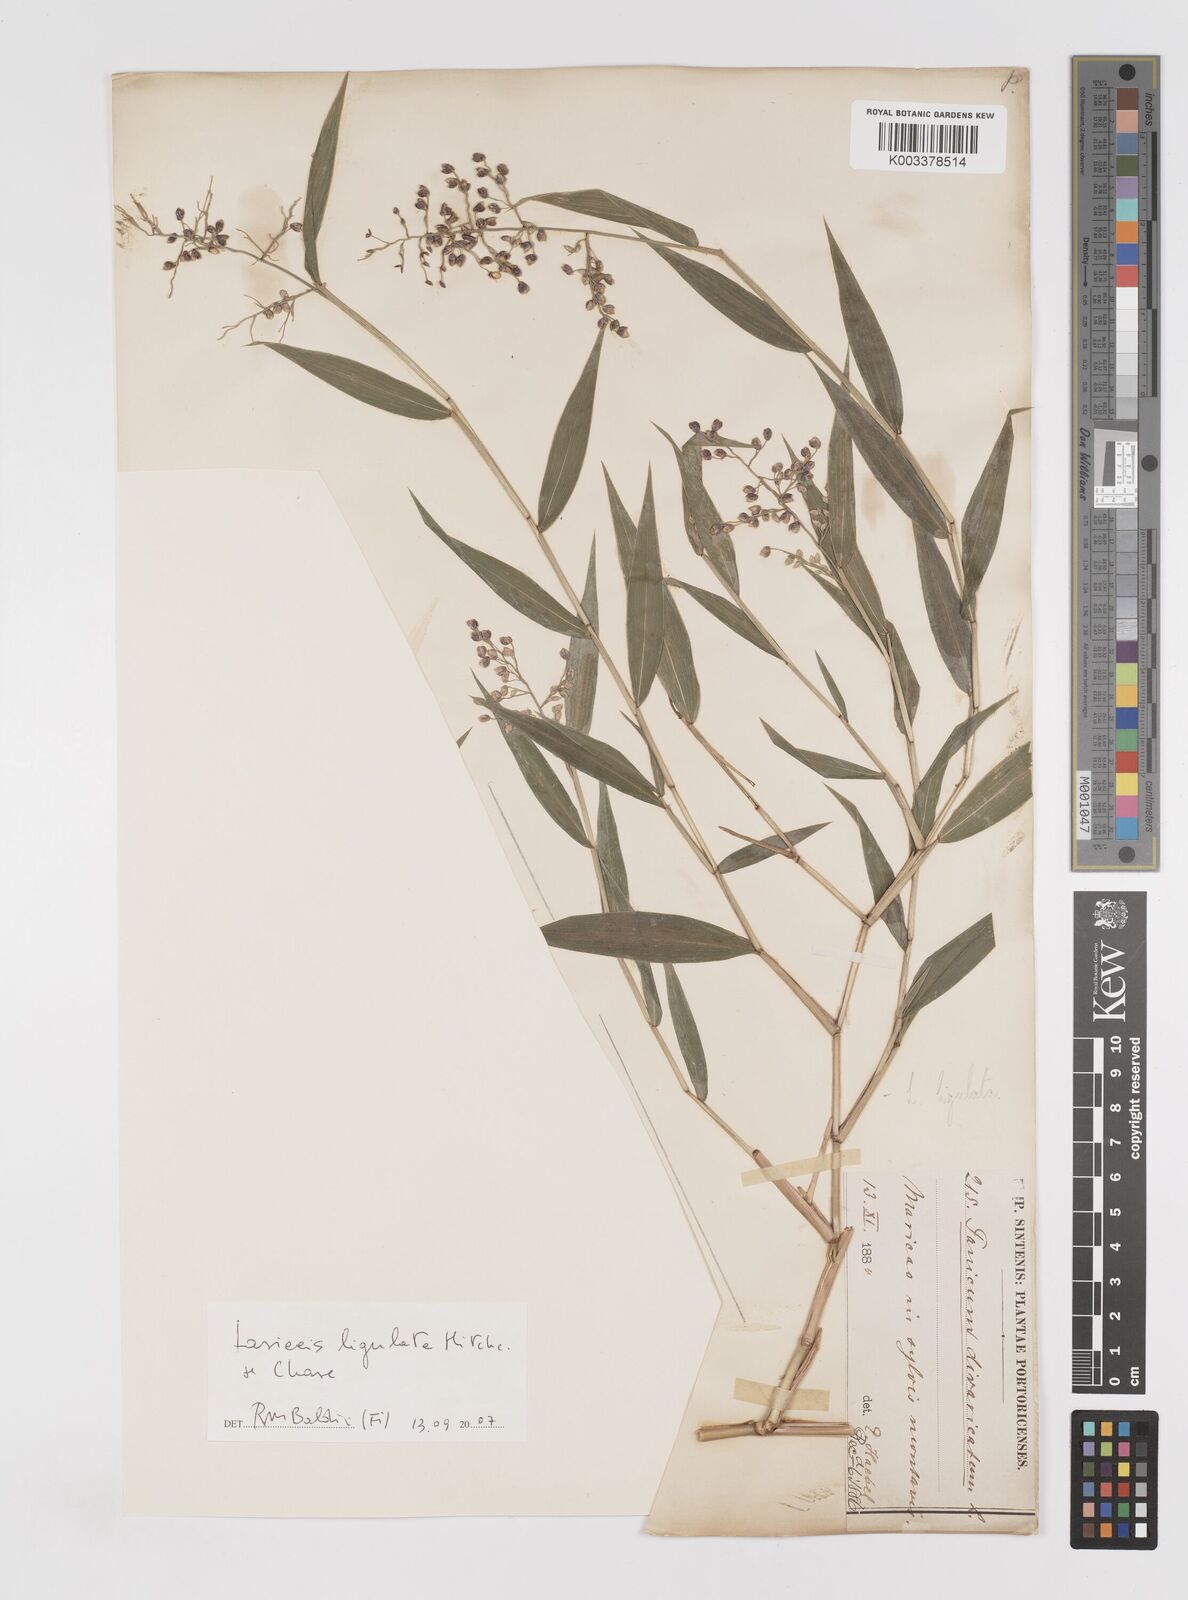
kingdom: Plantae
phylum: Tracheophyta
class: Liliopsida
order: Poales
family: Poaceae
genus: Lasiacis
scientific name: Lasiacis ligulata
